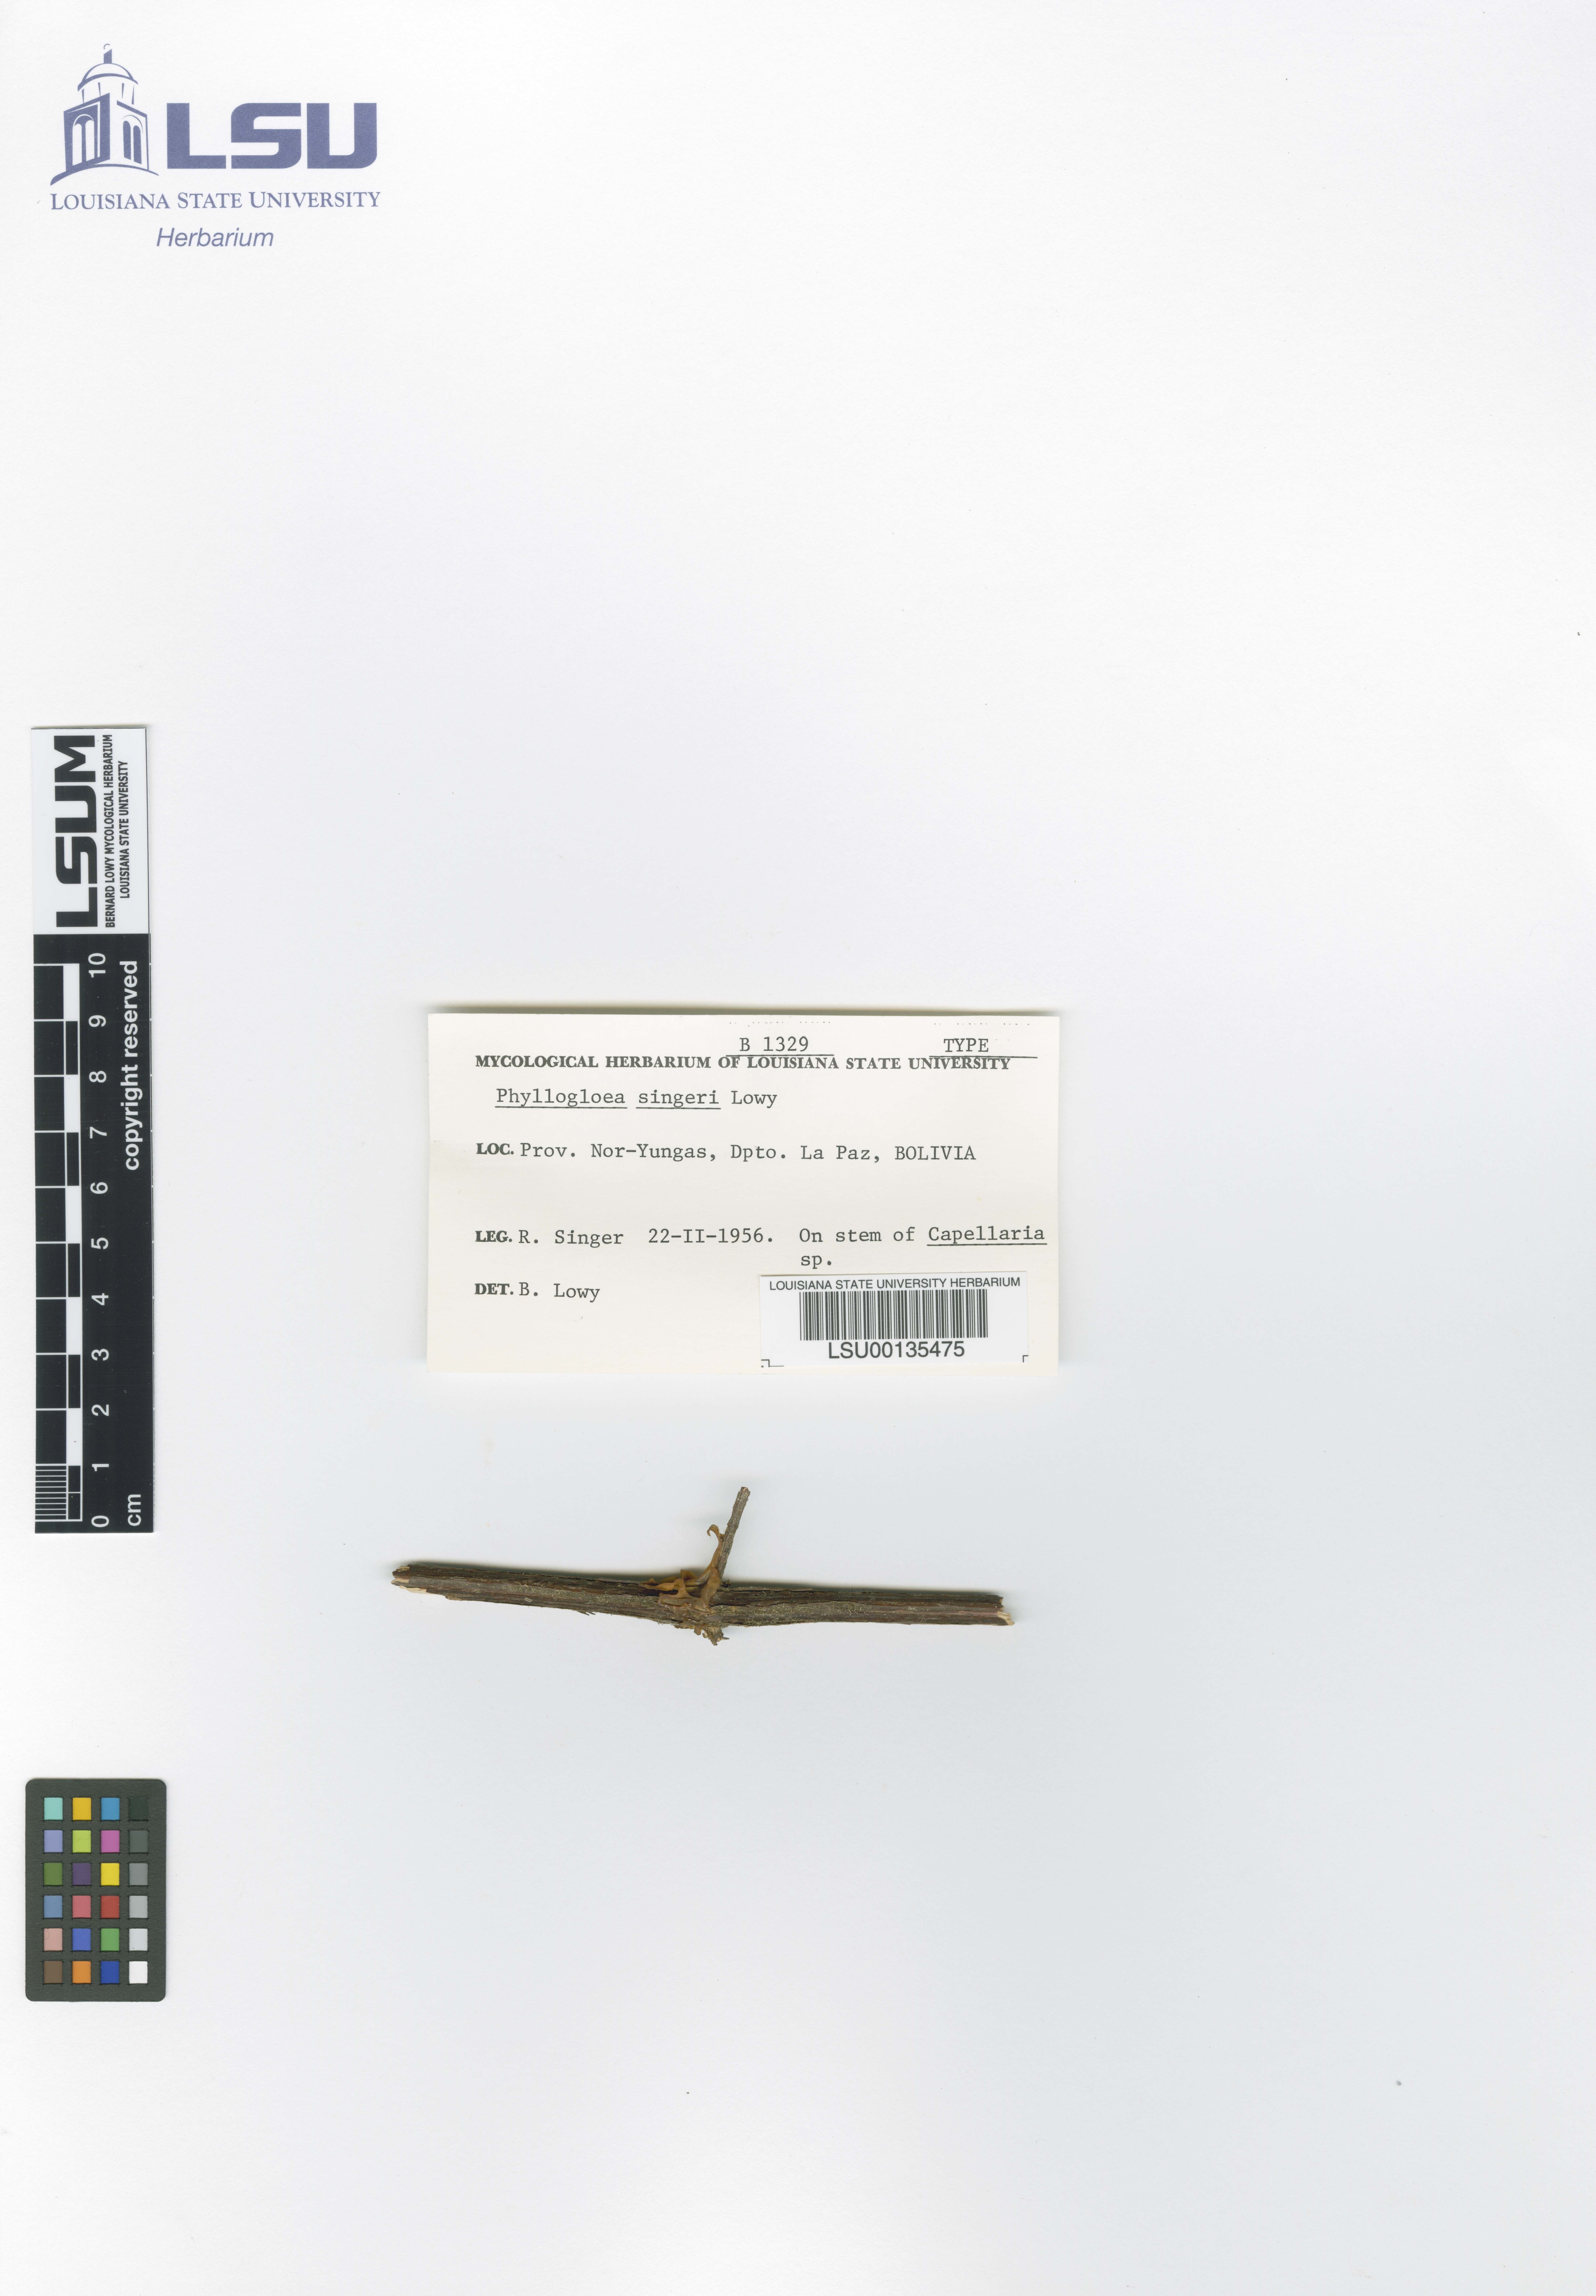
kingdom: Fungi
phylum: Basidiomycota
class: Pucciniomycetes
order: Platygloeales
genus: Phyllogloea
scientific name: Phyllogloea
